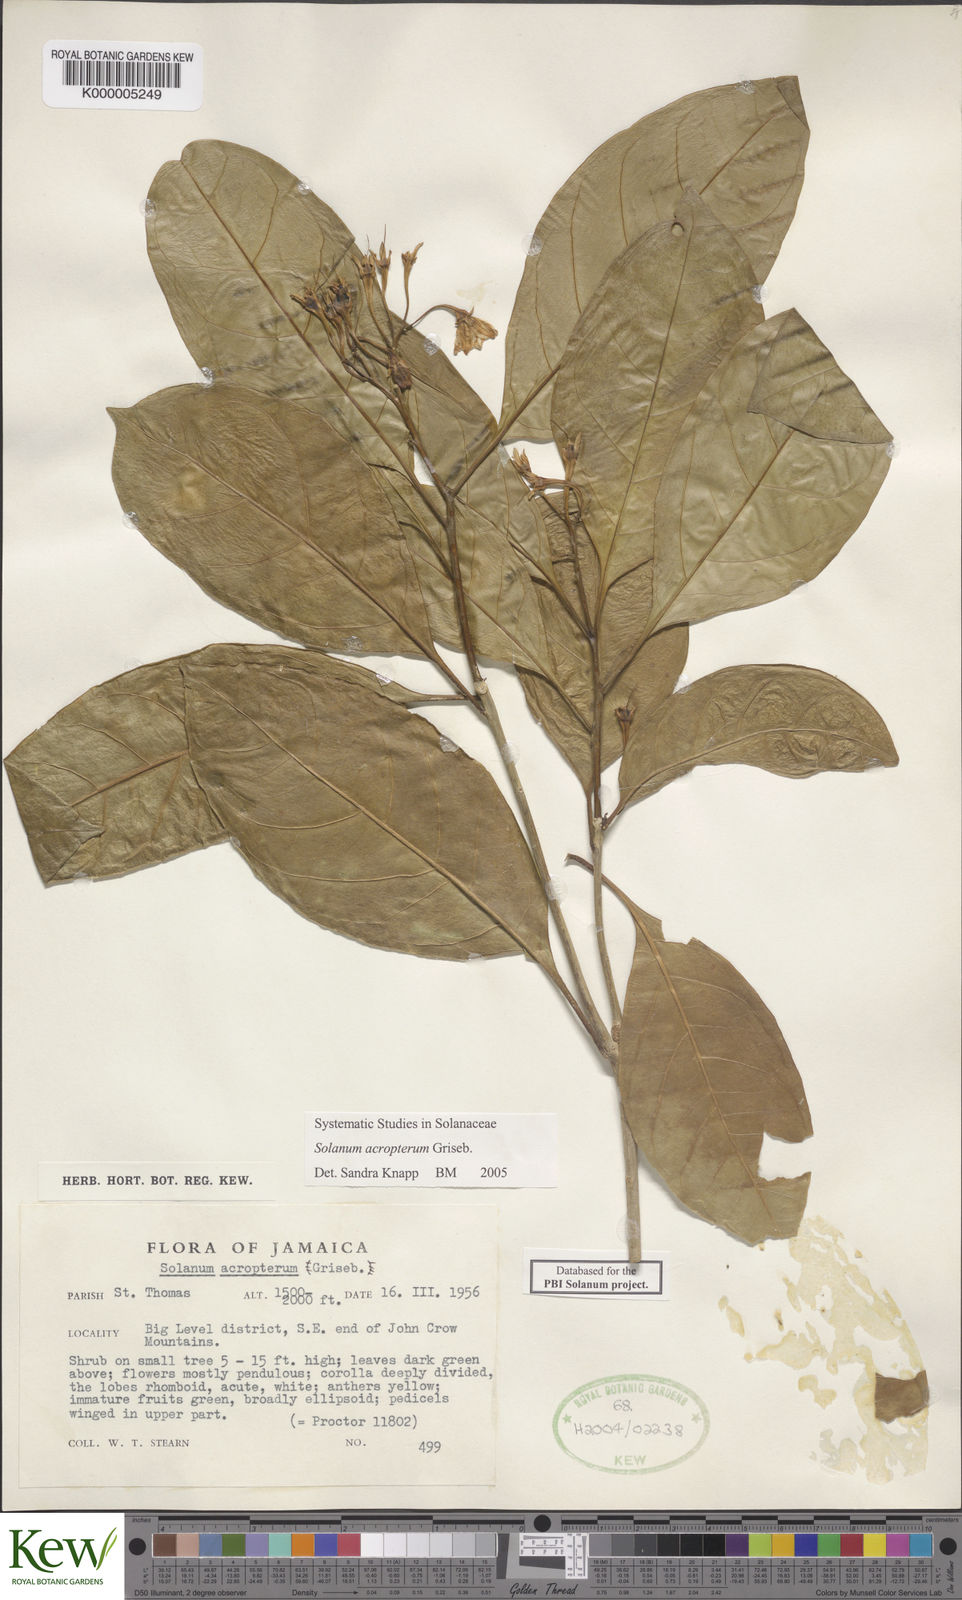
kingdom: Plantae
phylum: Tracheophyta
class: Magnoliopsida
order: Solanales
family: Solanaceae
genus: Solanum
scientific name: Solanum acropterum
